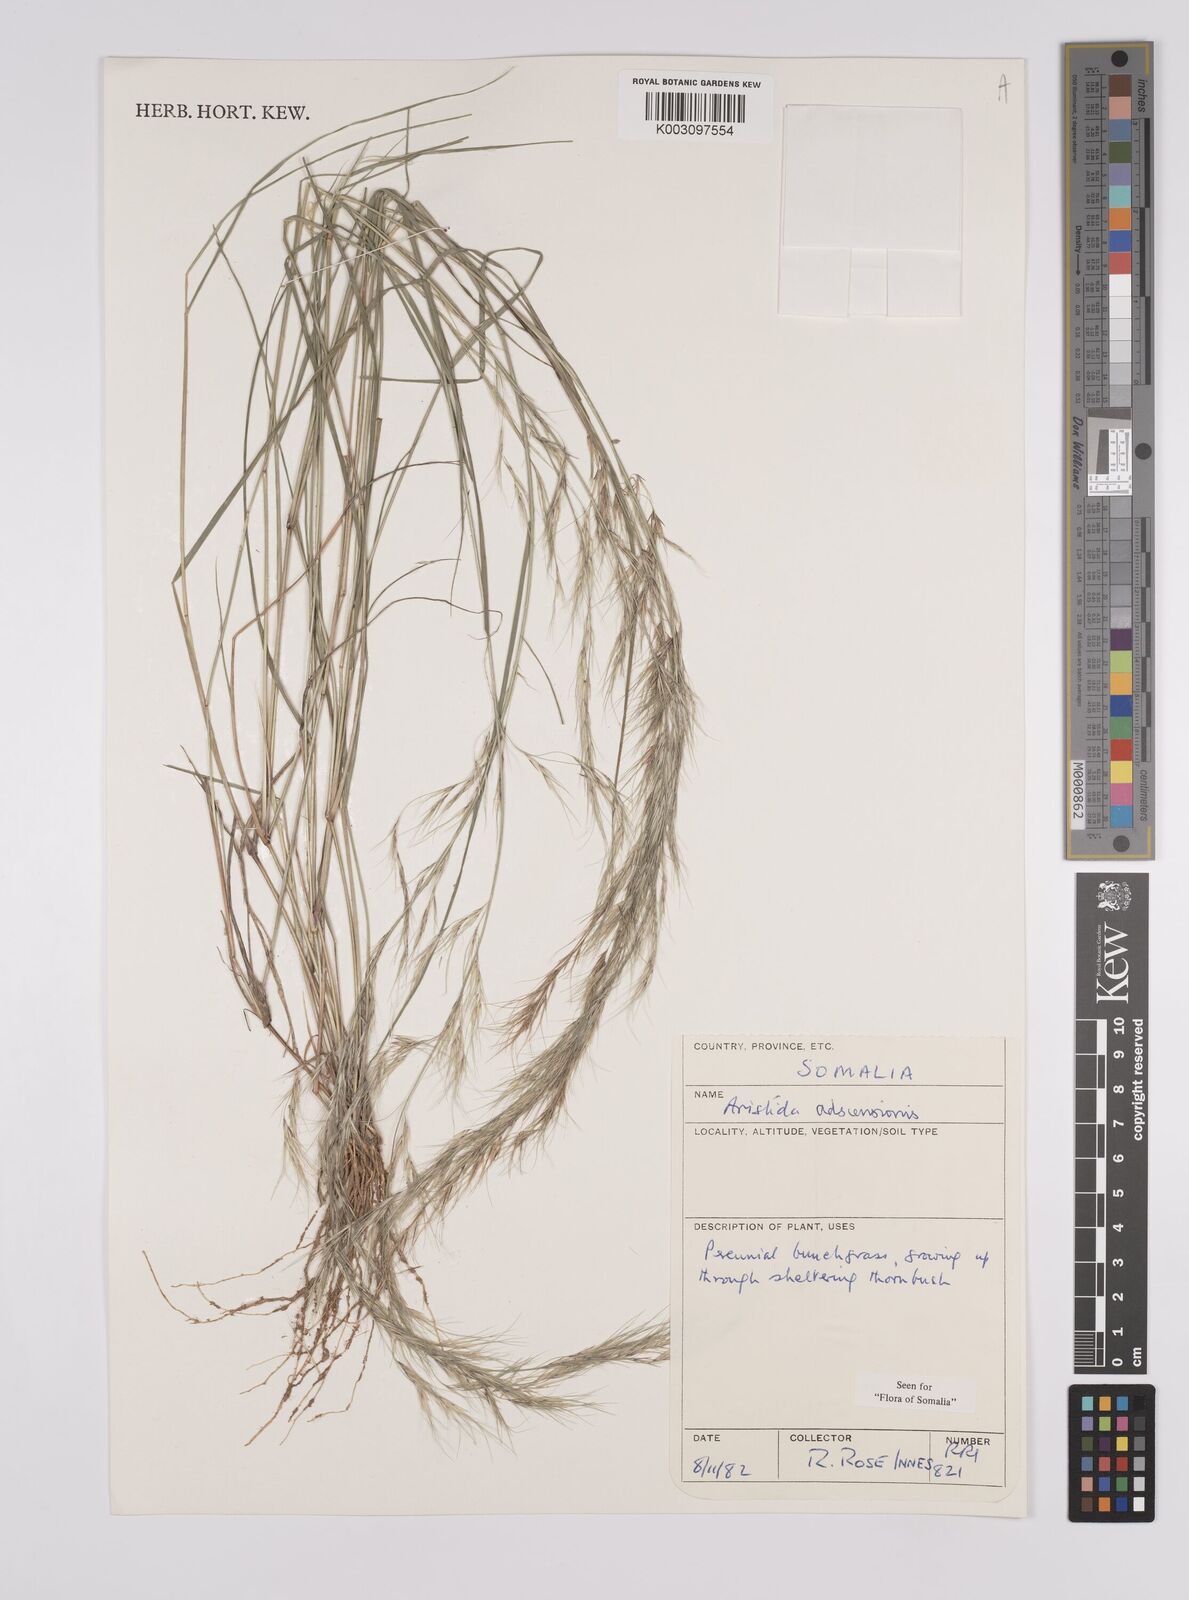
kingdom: Plantae
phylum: Tracheophyta
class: Liliopsida
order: Poales
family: Poaceae
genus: Aristida
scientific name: Aristida adscensionis
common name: Sixweeks threeawn
